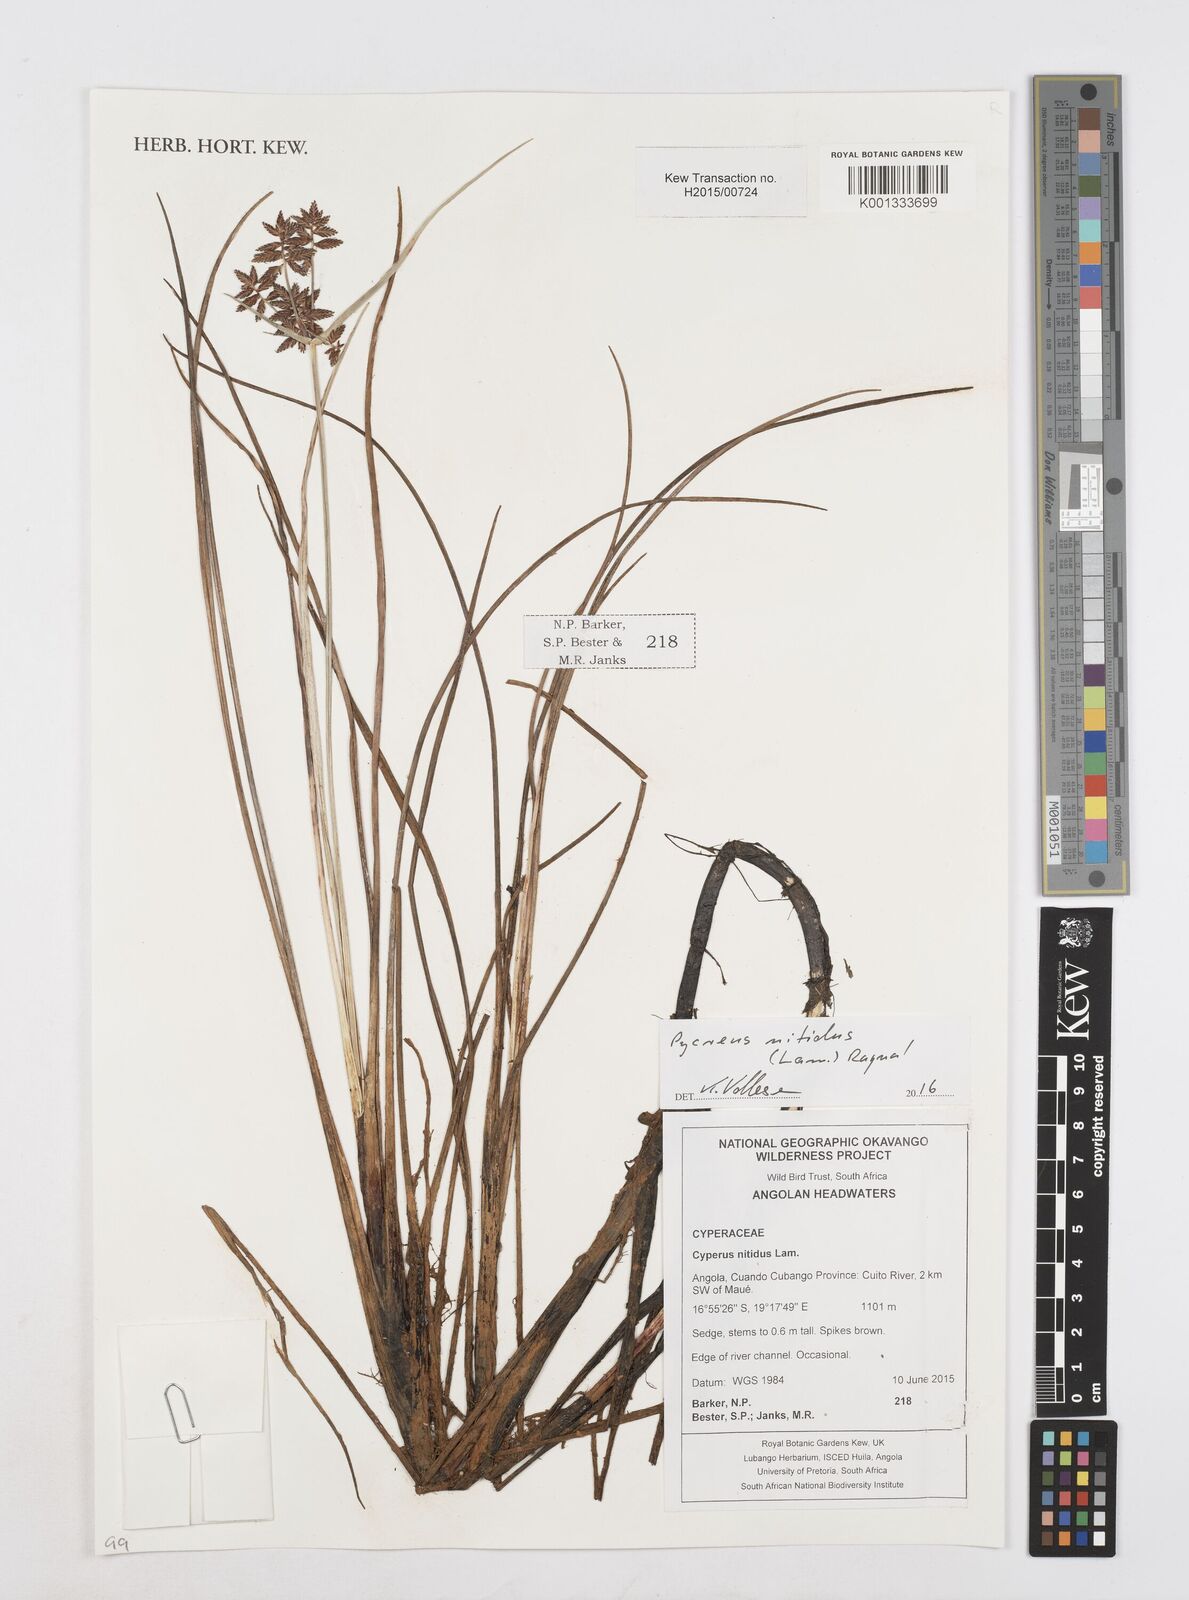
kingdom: Plantae
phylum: Tracheophyta
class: Liliopsida
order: Poales
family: Cyperaceae
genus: Cyperus
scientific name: Cyperus nitidus
